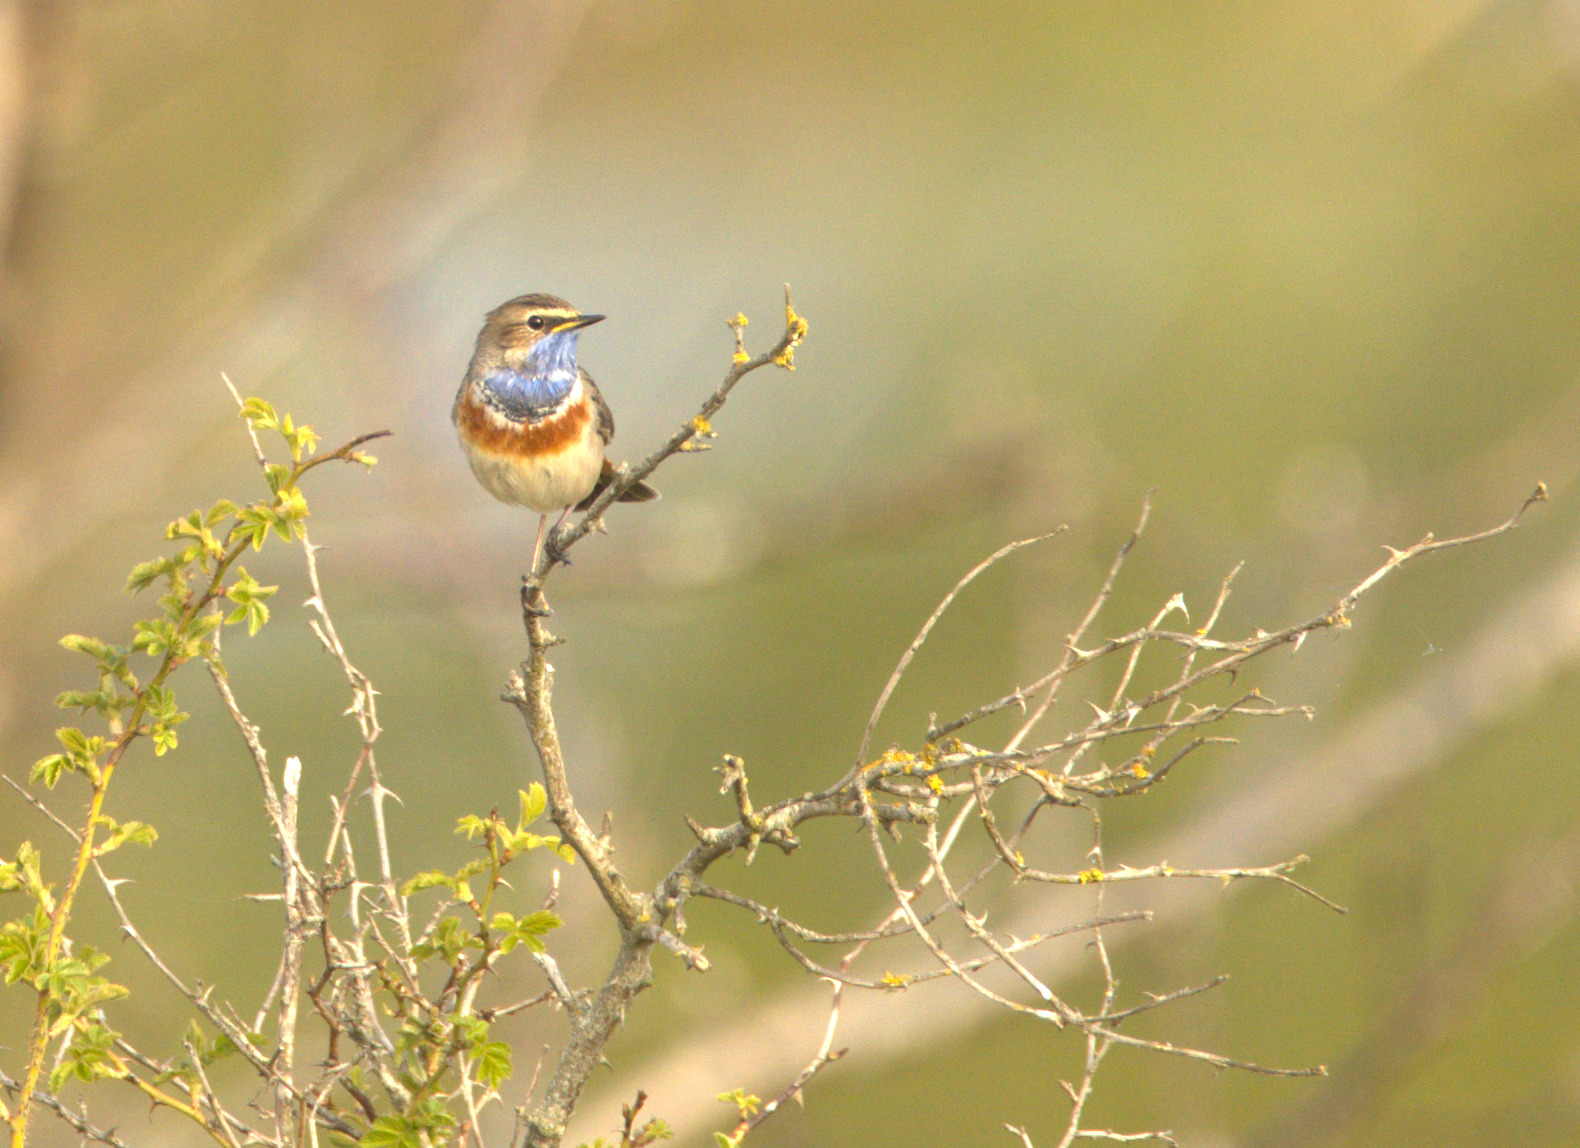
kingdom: Animalia
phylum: Chordata
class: Aves
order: Passeriformes
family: Muscicapidae
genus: Luscinia
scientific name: Luscinia svecica
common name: Blåhals
